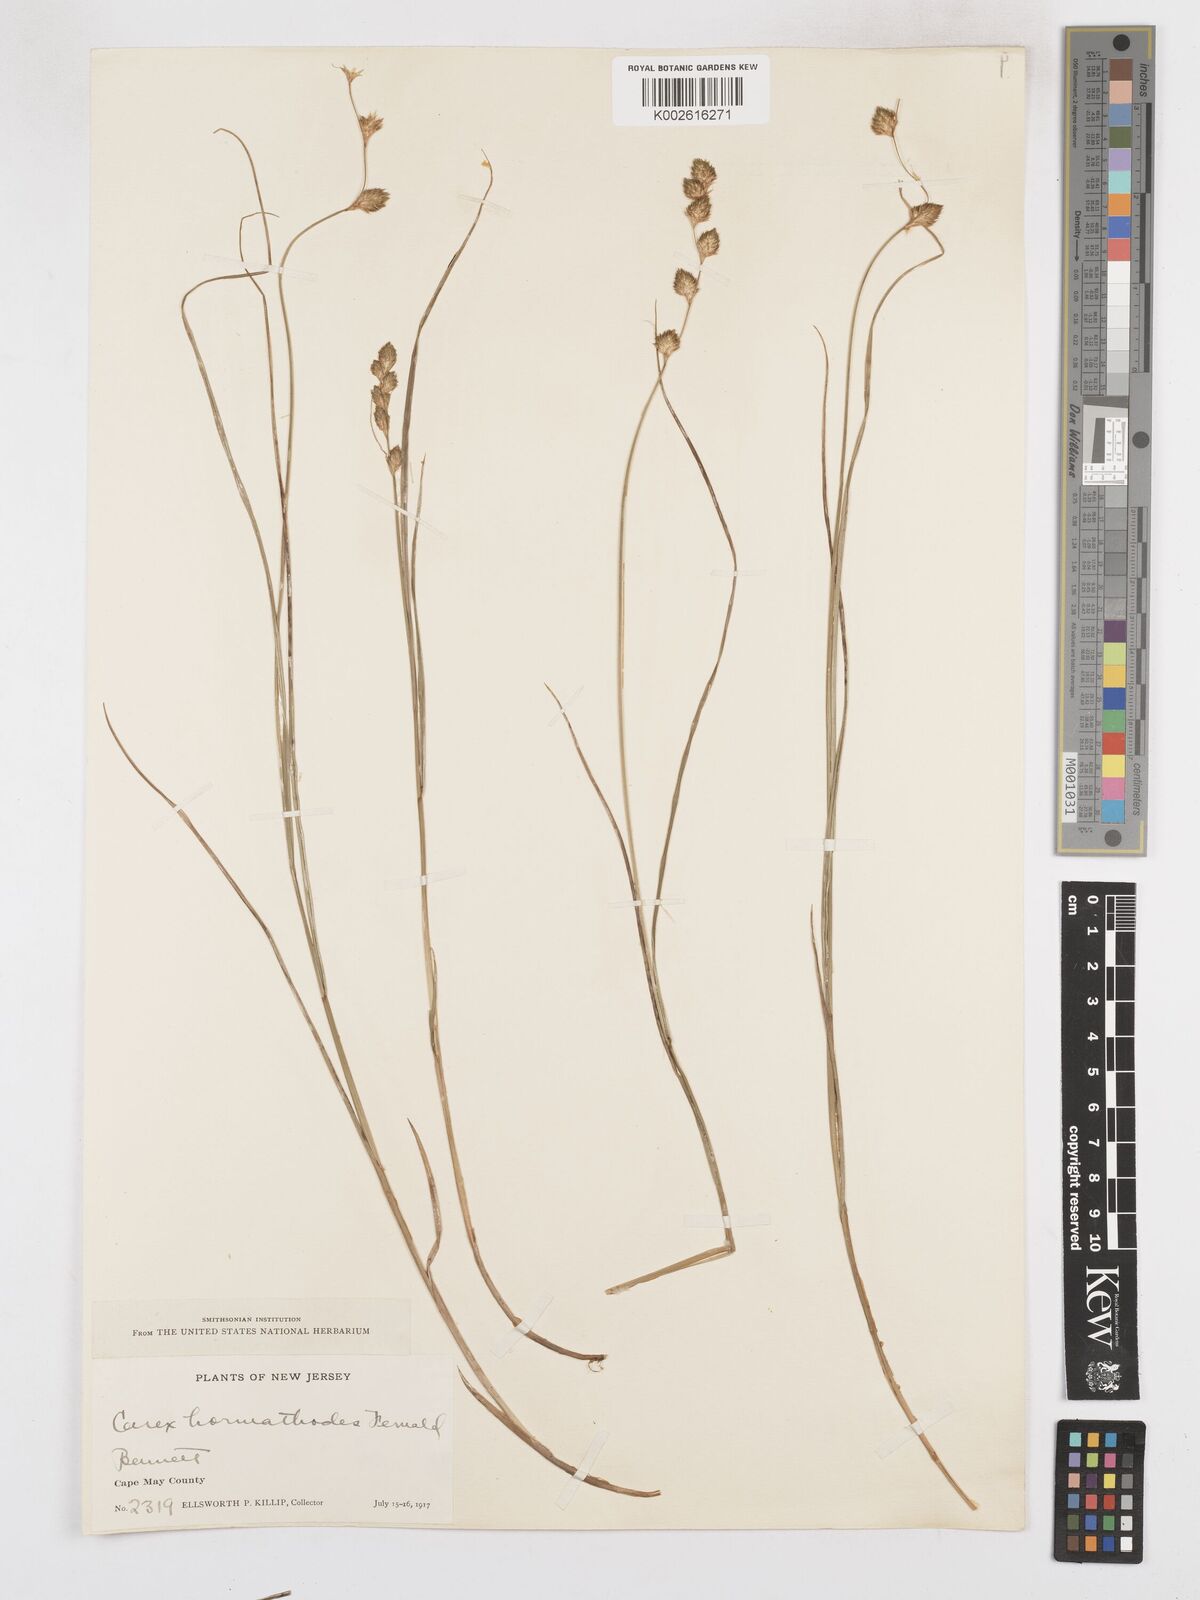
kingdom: Plantae
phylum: Tracheophyta
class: Liliopsida
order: Poales
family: Cyperaceae
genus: Carex
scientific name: Carex hormathodes
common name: Marsh straw sedge
